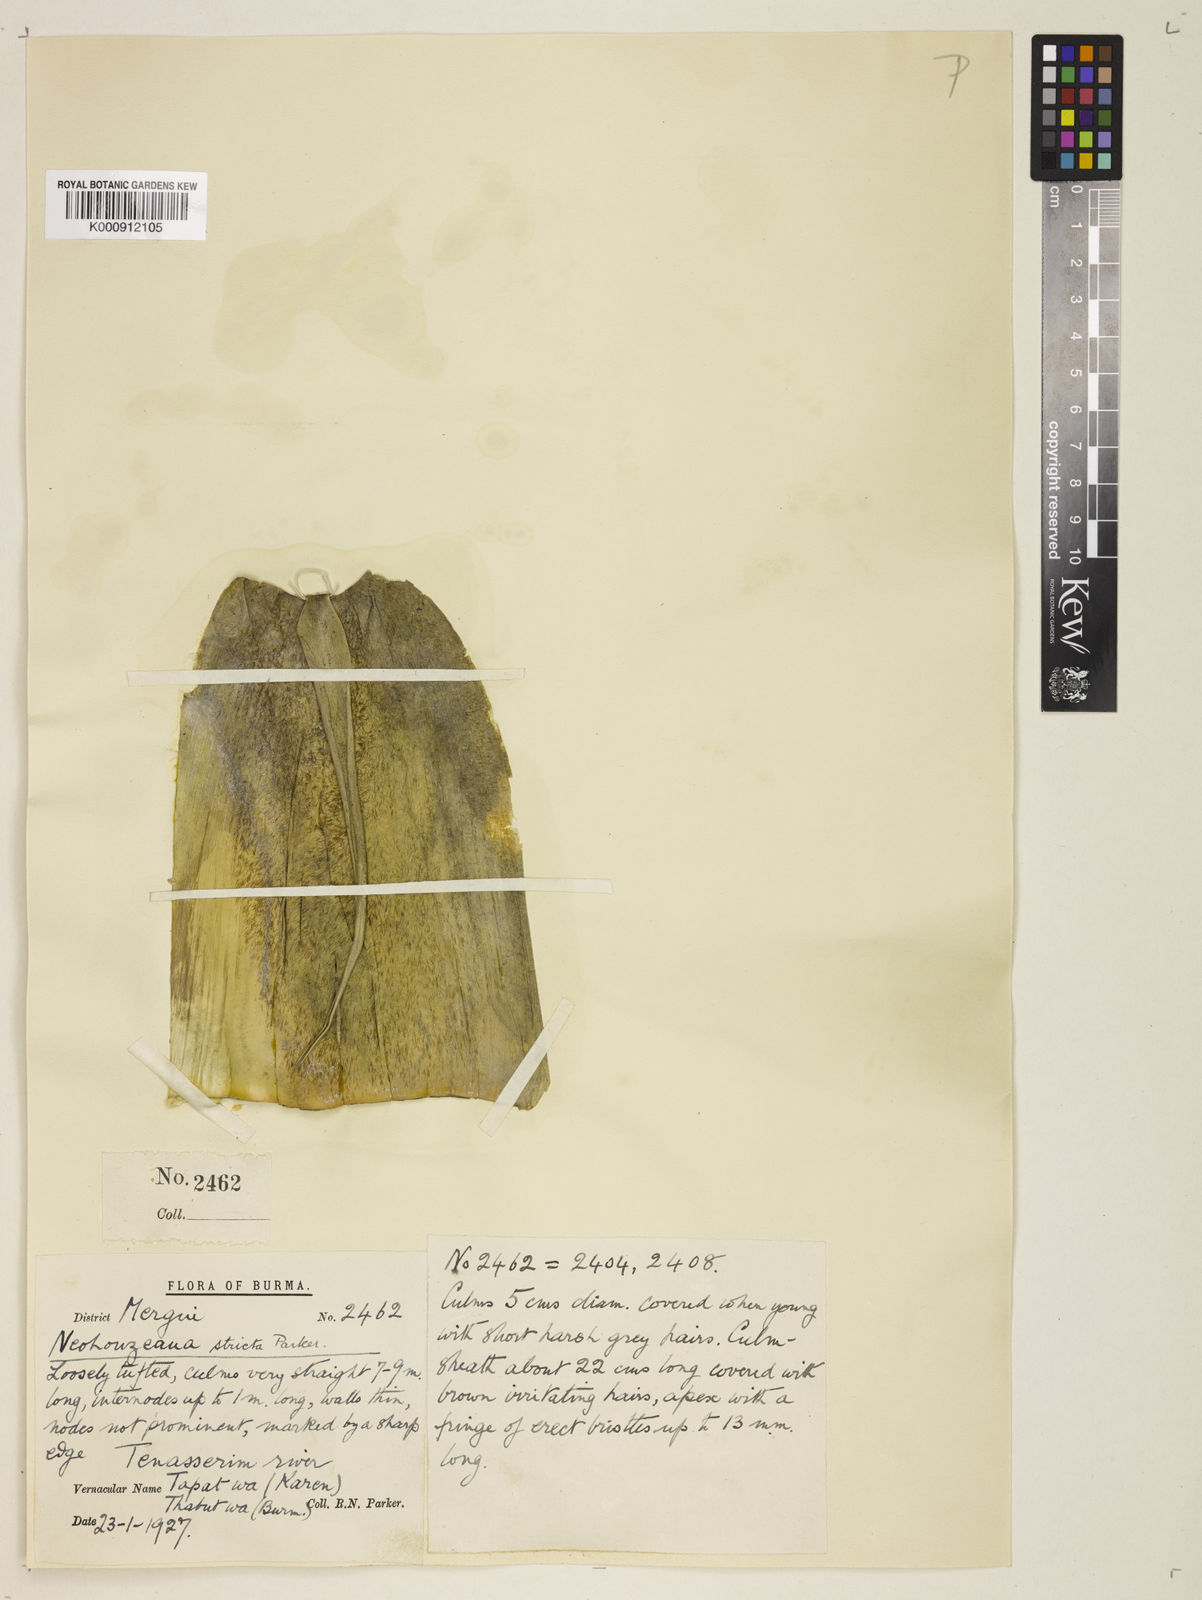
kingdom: Plantae
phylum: Tracheophyta
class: Liliopsida
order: Poales
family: Poaceae
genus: Schizostachyum
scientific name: Schizostachyum strictum
